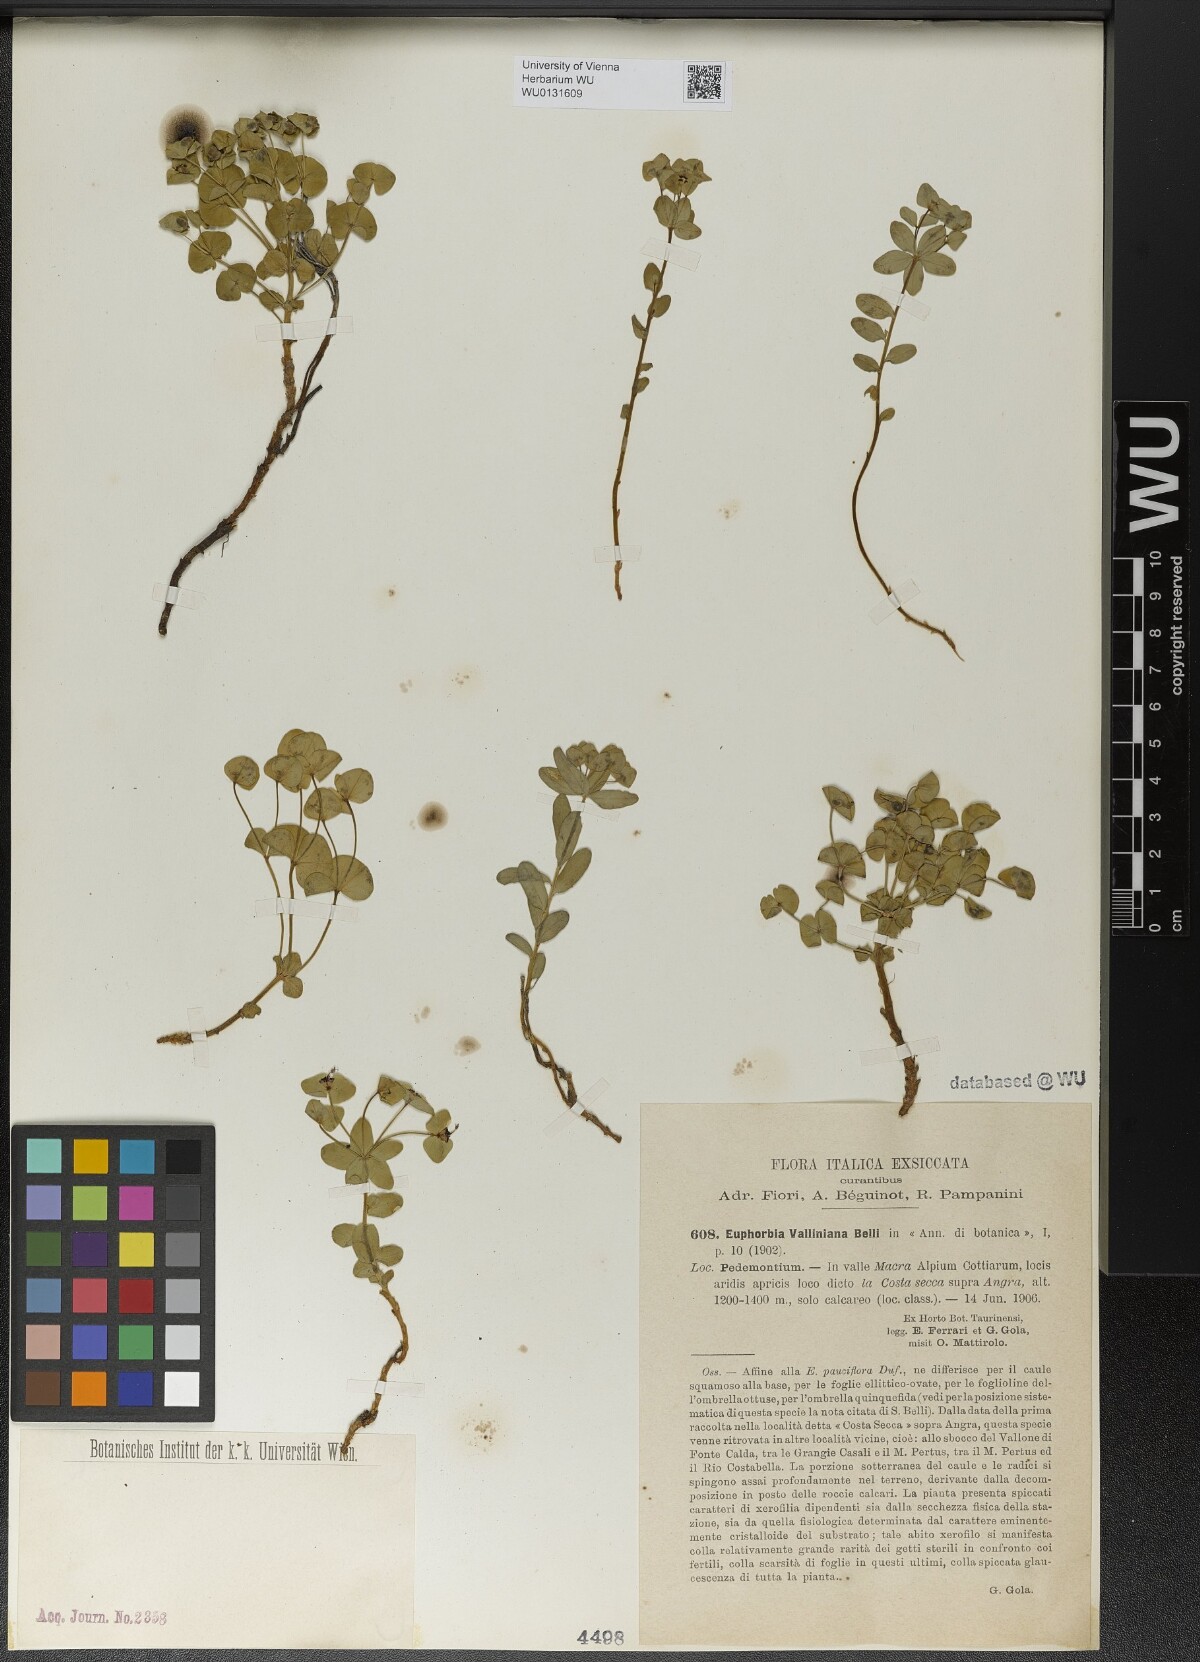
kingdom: Plantae
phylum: Tracheophyta
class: Magnoliopsida
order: Malpighiales
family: Euphorbiaceae
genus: Euphorbia
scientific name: Euphorbia variabilis
